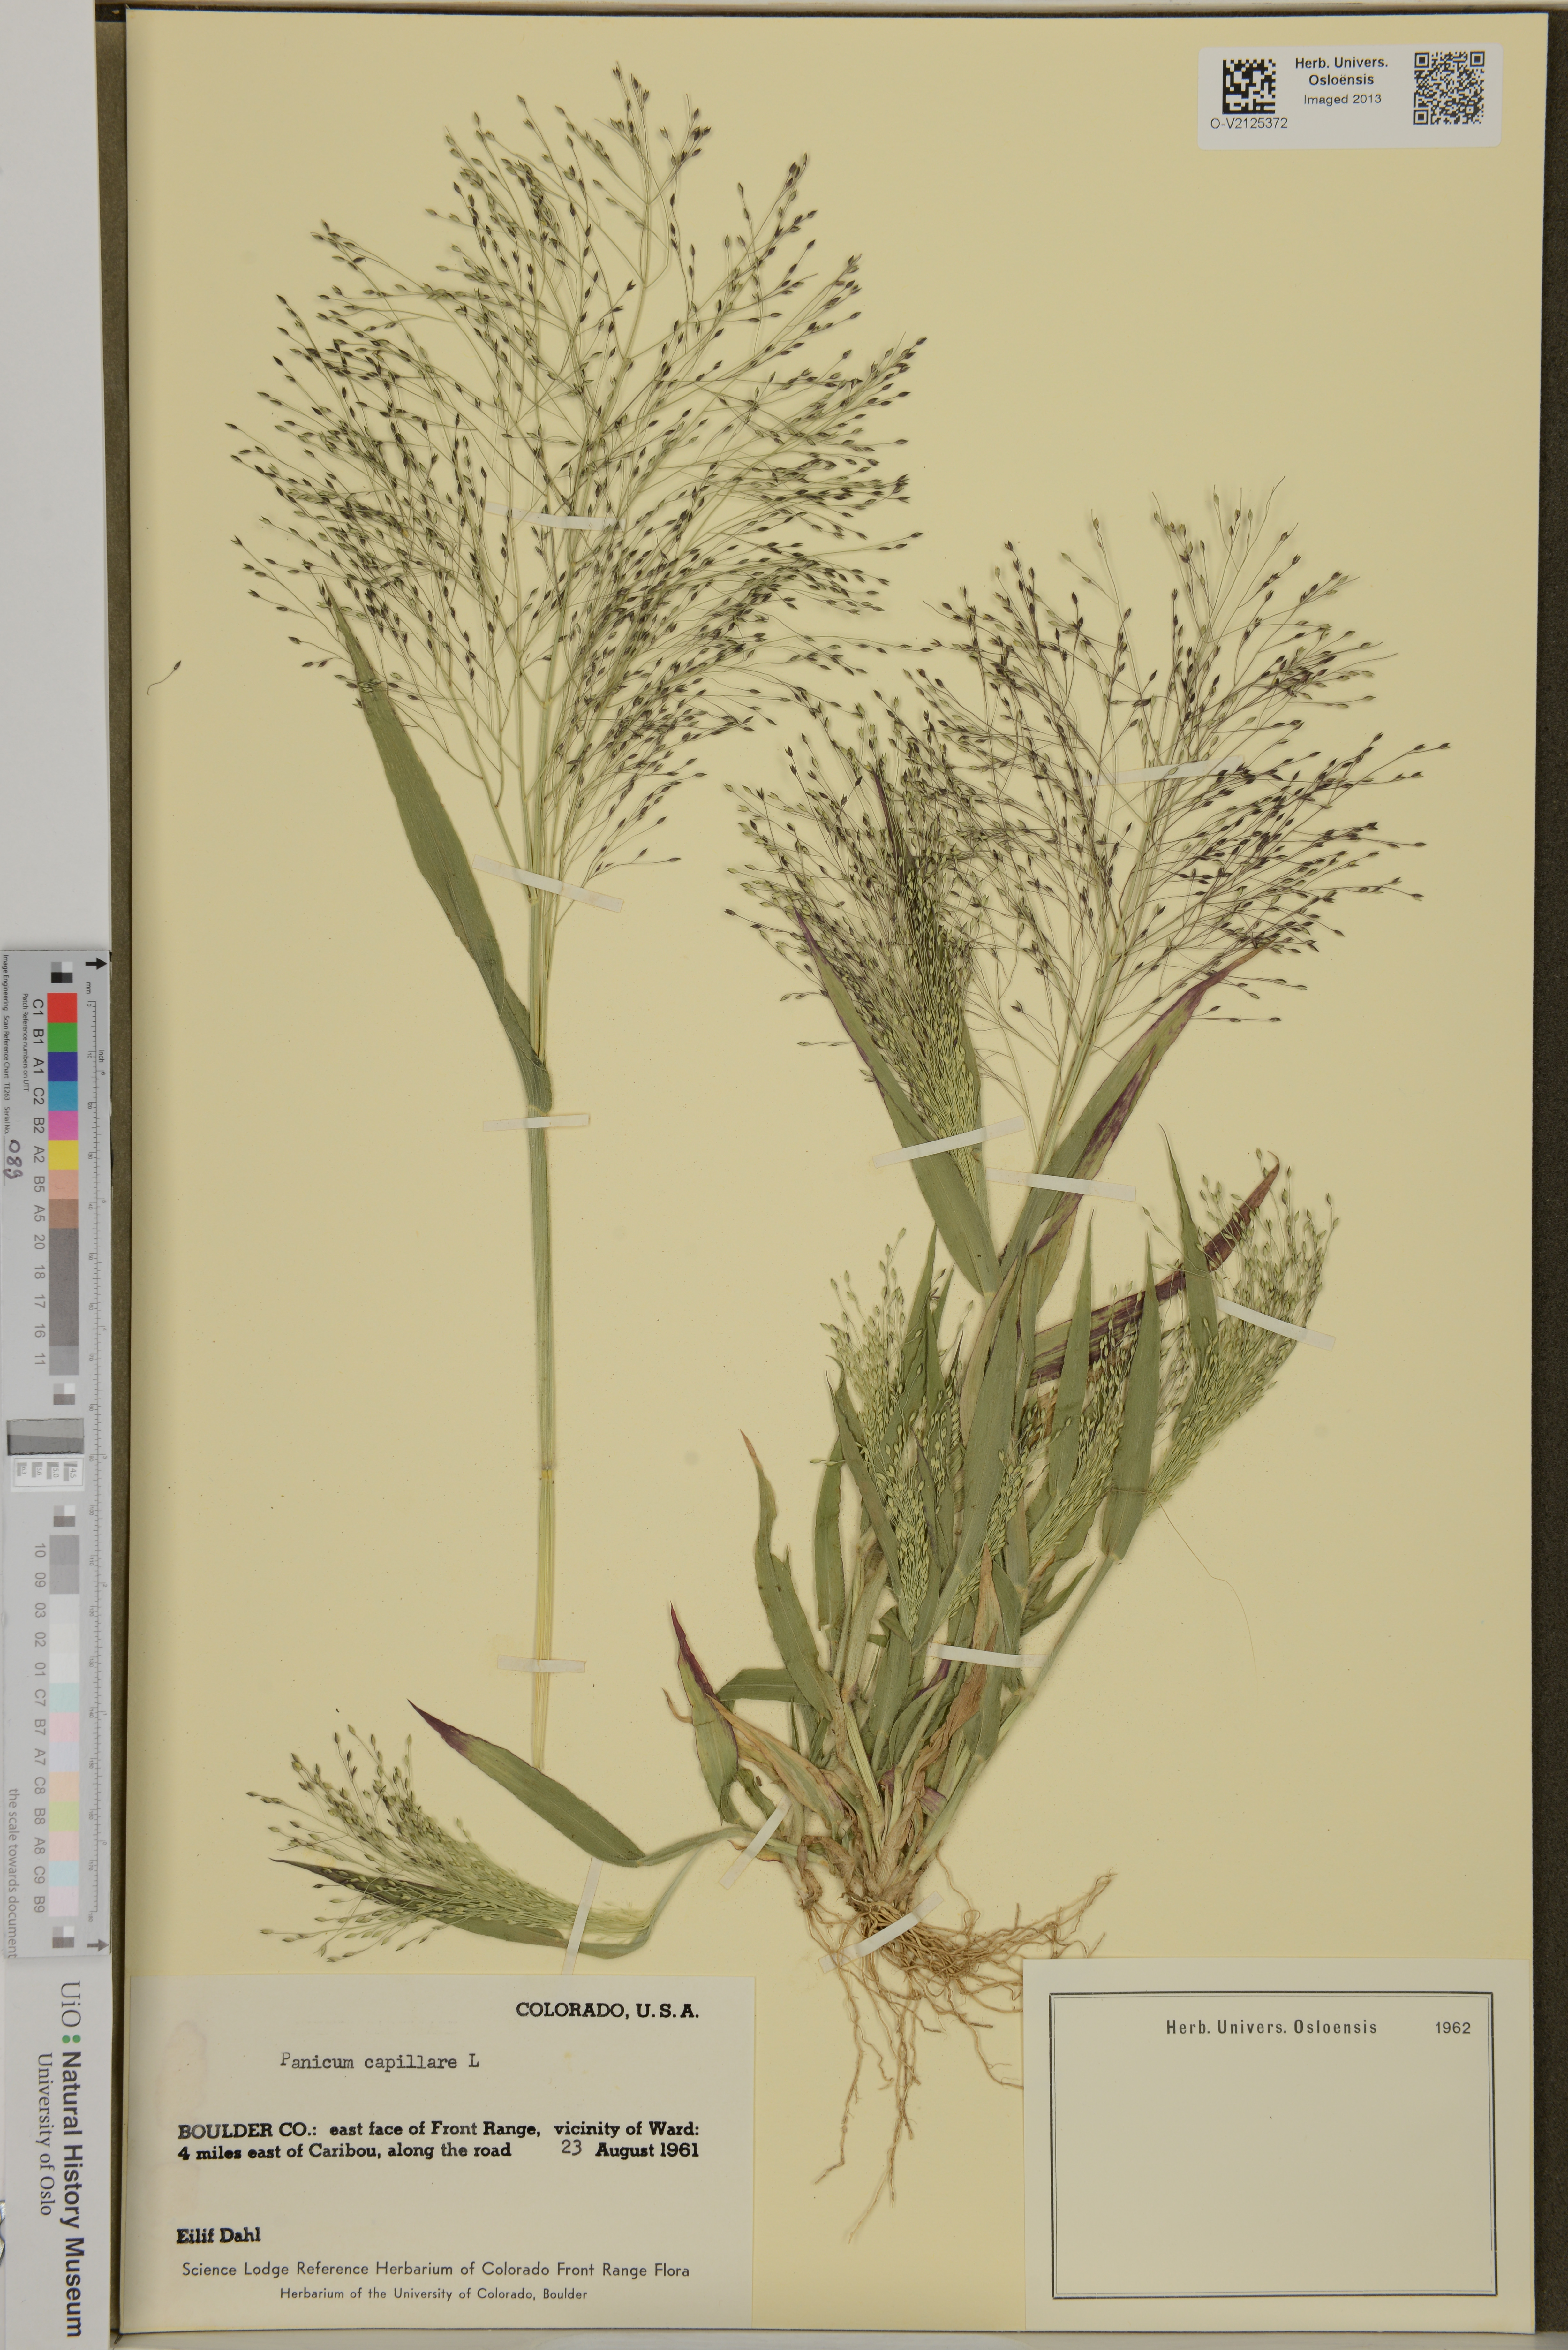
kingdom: Plantae
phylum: Tracheophyta
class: Liliopsida
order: Poales
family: Poaceae
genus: Panicum
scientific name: Panicum capillare
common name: Witch-grass
